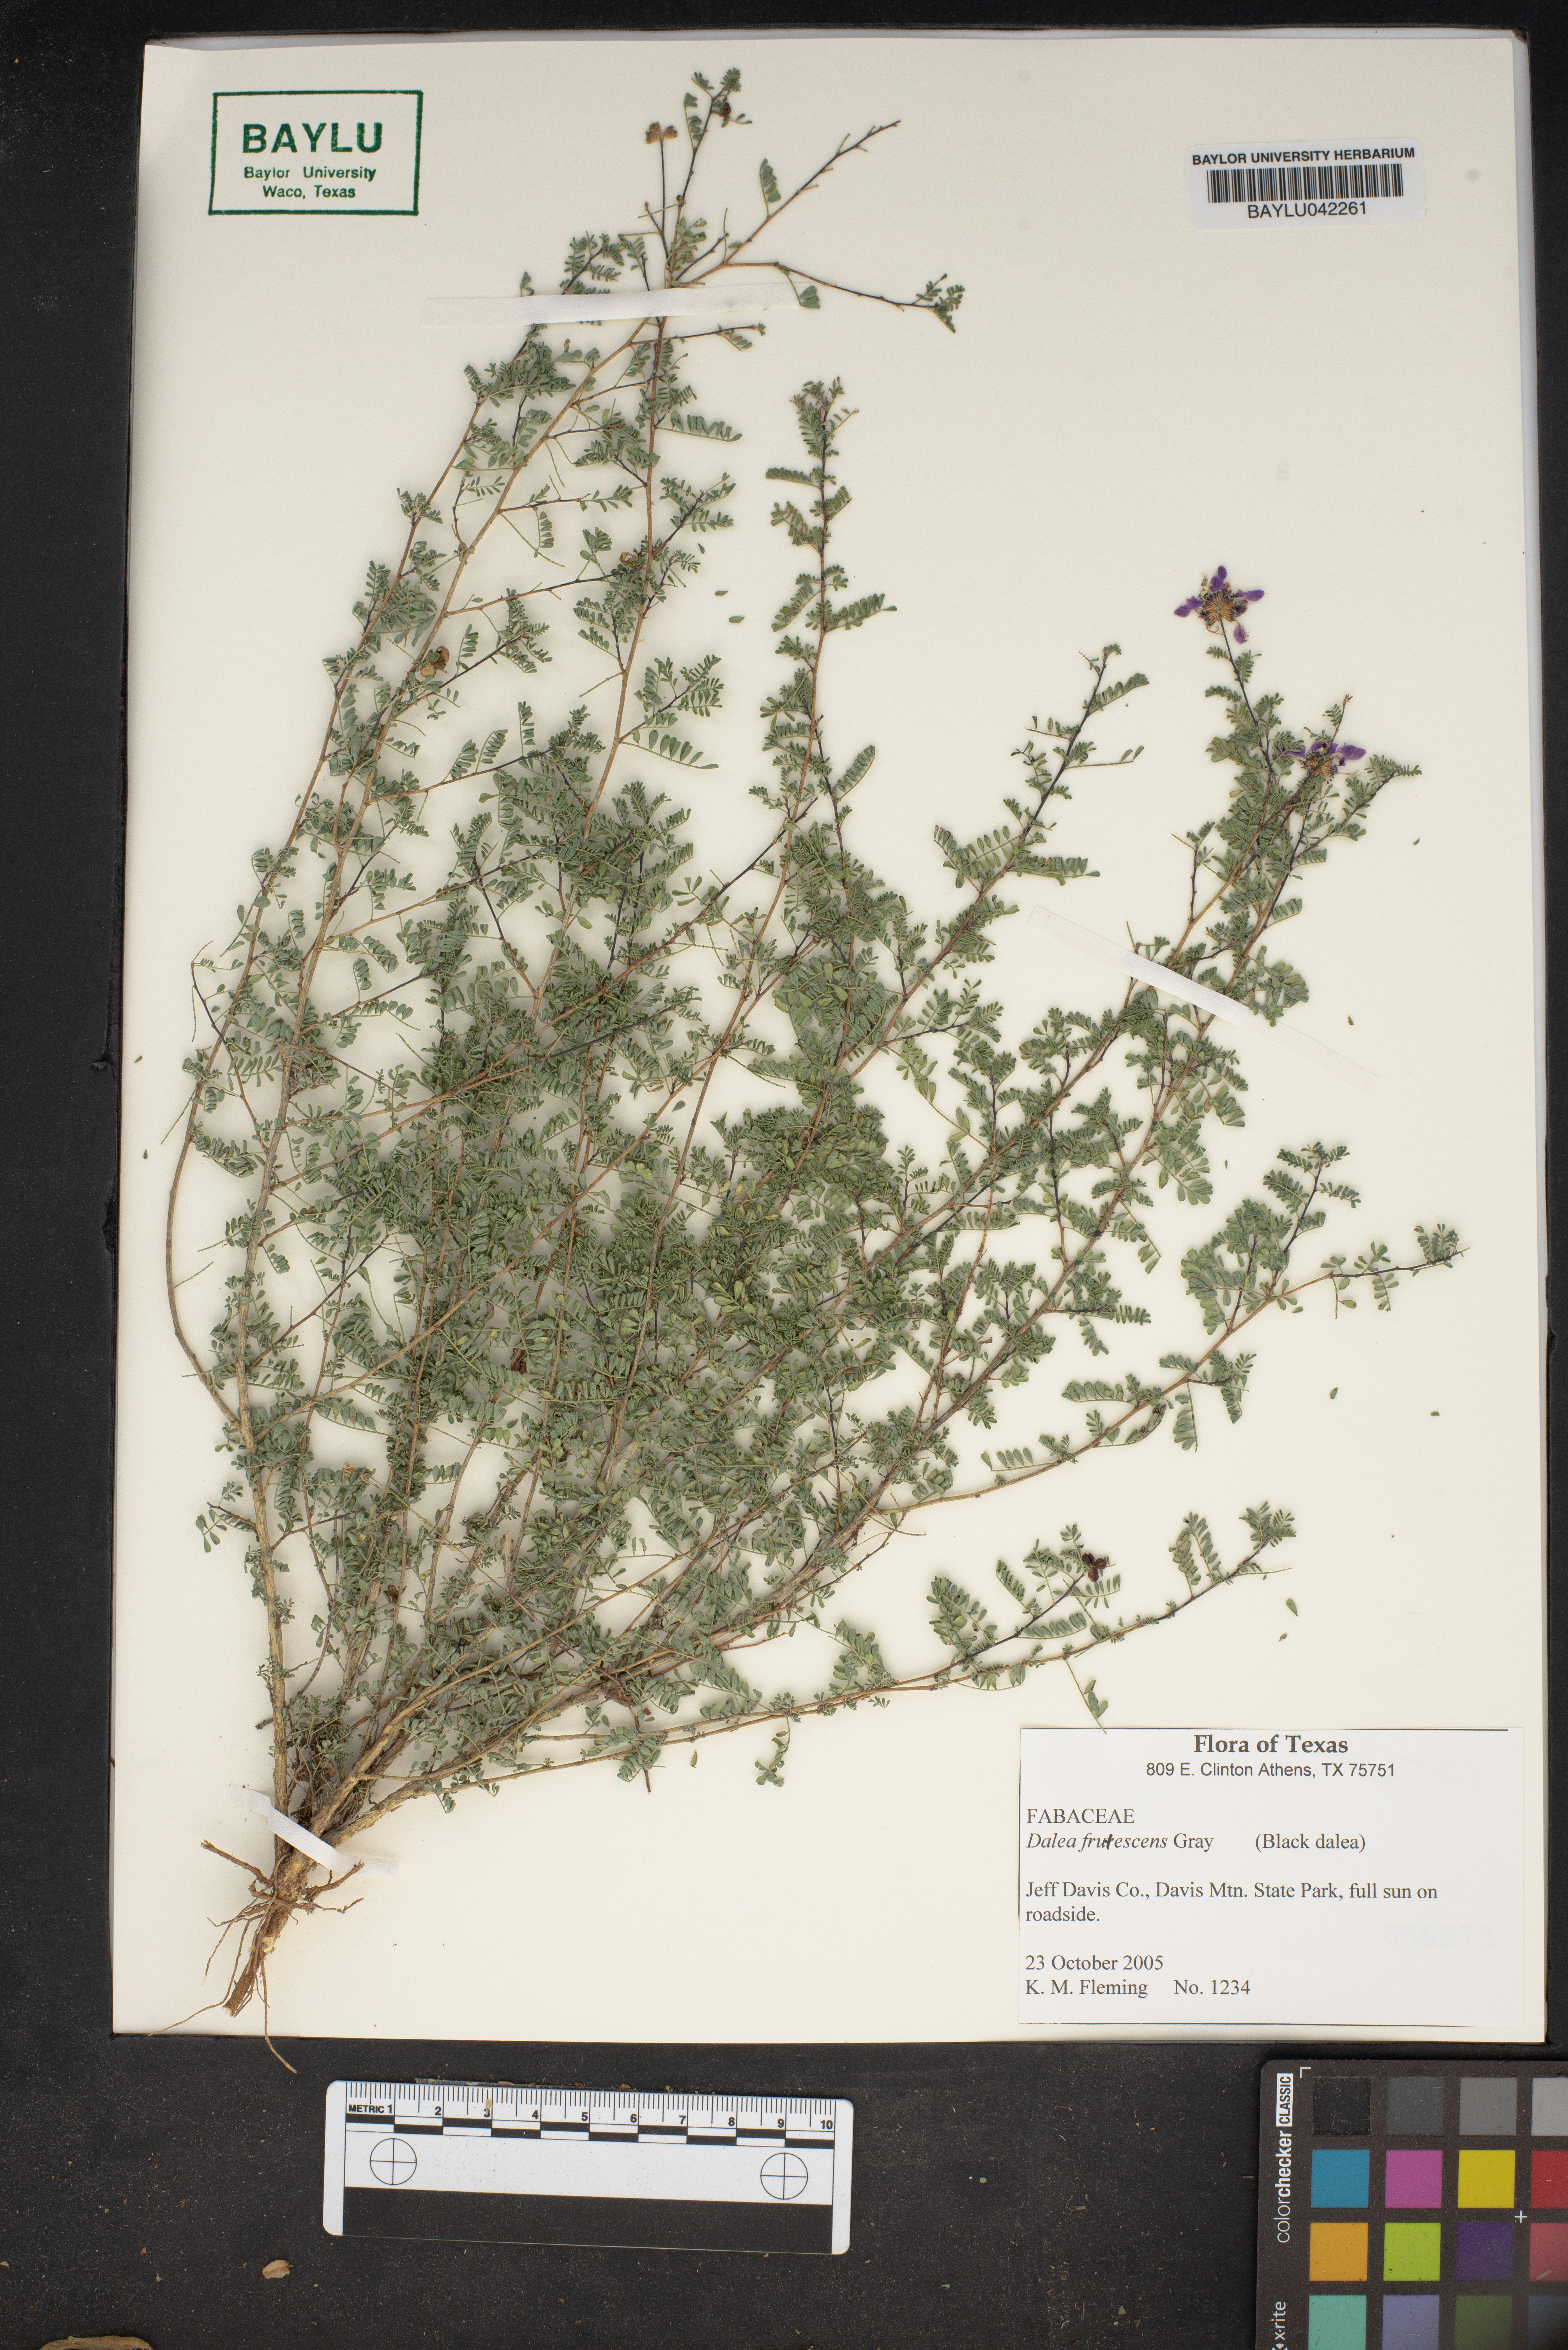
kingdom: Plantae
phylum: Tracheophyta
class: Magnoliopsida
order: Fabales
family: Fabaceae
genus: Dalea
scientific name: Dalea frutescens
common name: Black dalea
